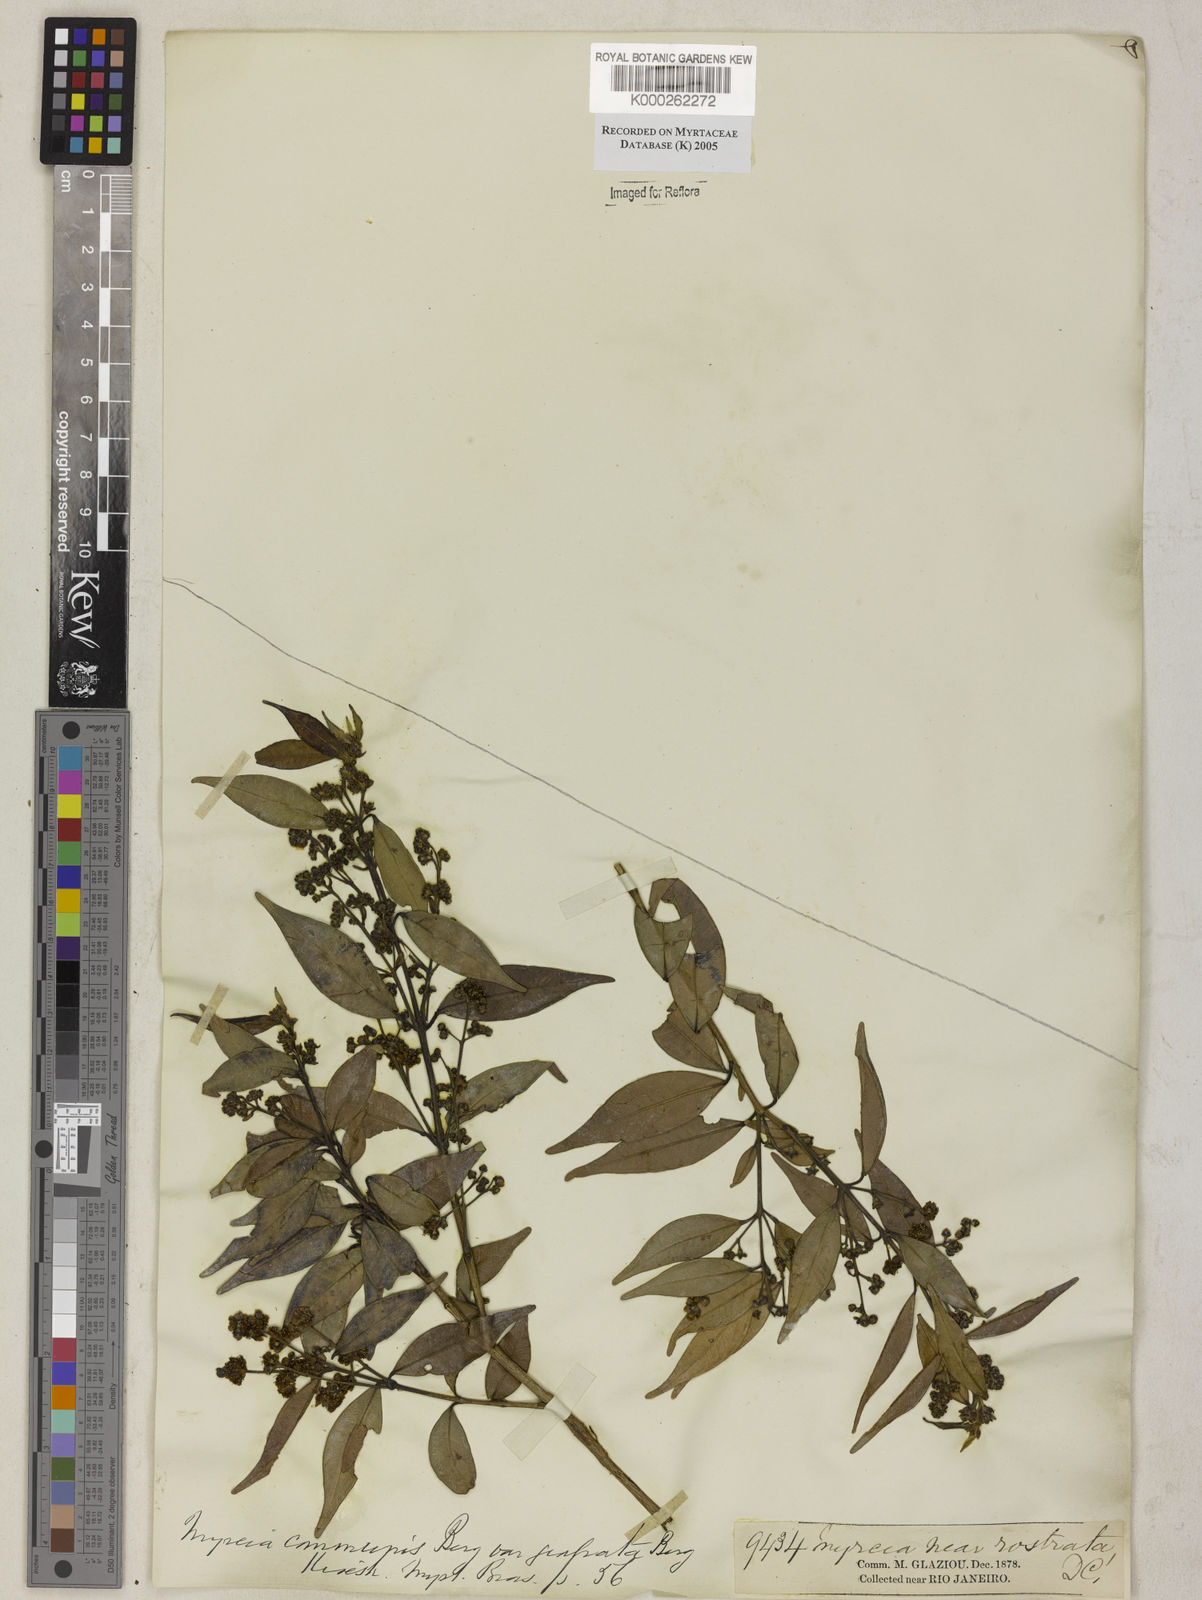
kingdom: Plantae
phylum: Tracheophyta
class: Magnoliopsida
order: Myrtales
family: Myrtaceae
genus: Myrcia
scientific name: Myrcia splendens
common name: Surinam cherry
